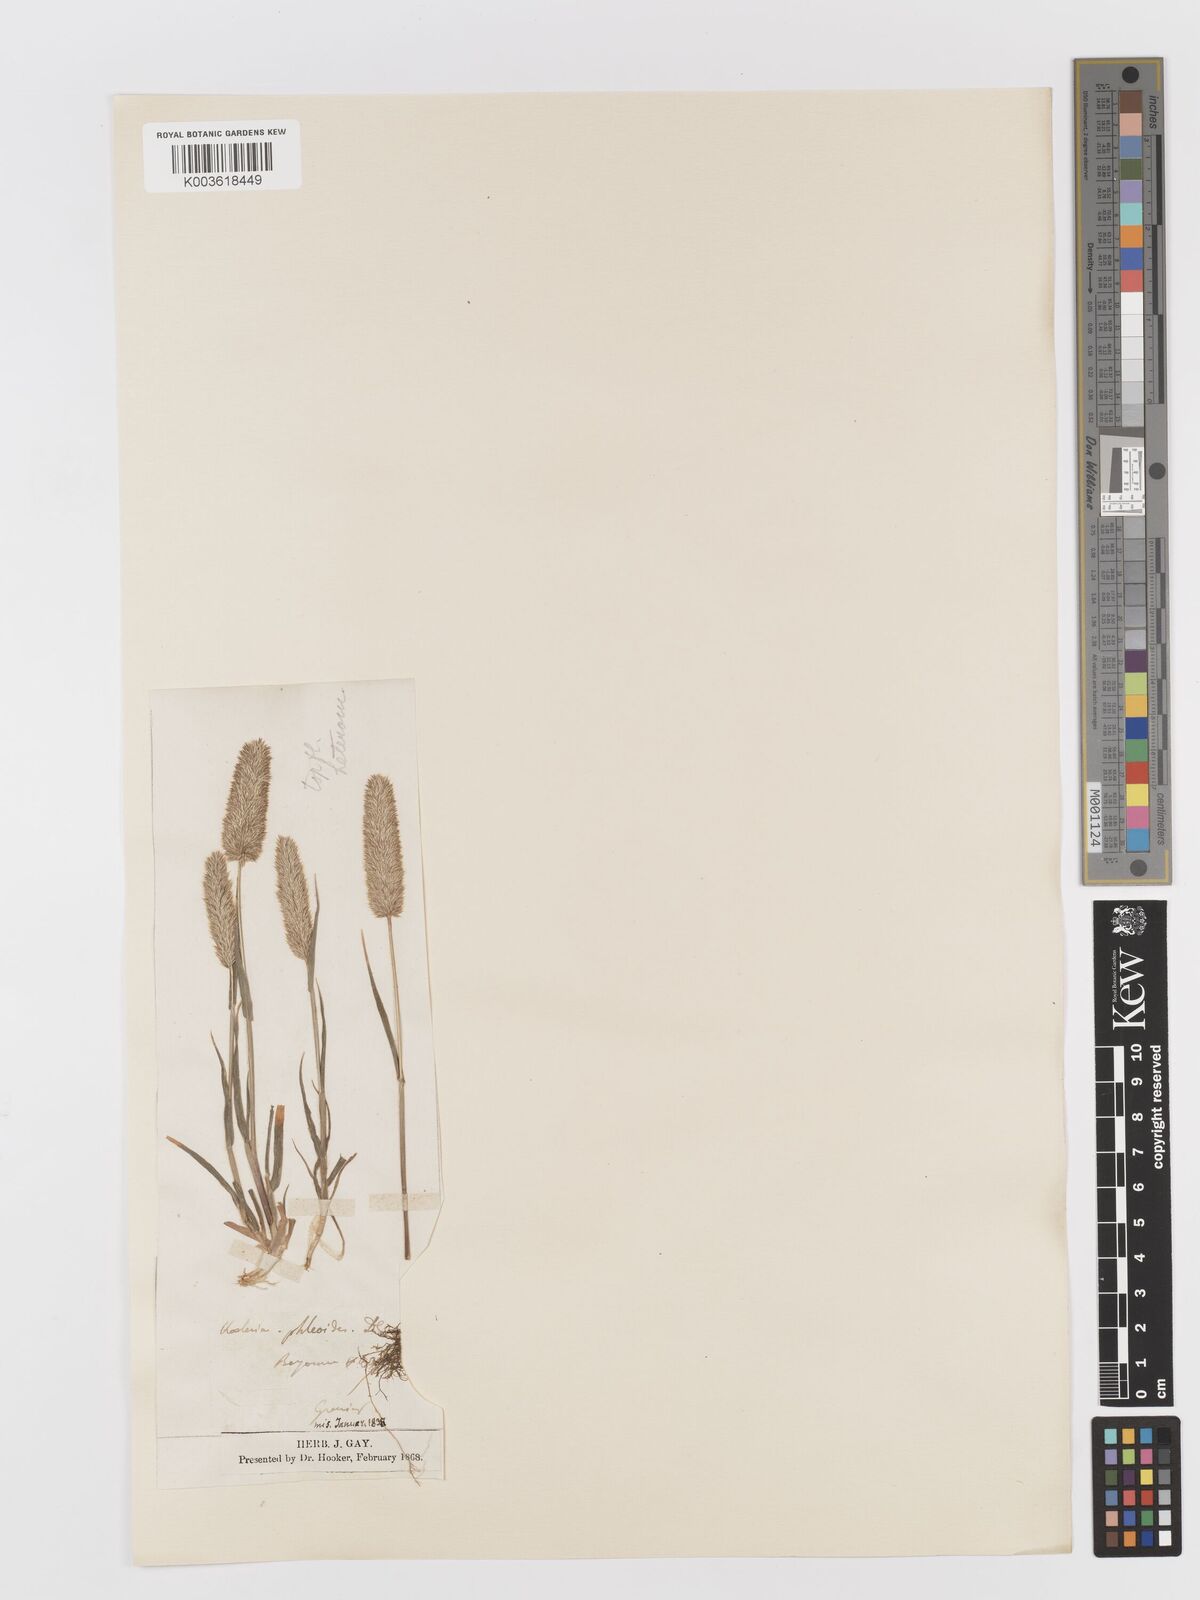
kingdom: Plantae
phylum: Tracheophyta
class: Liliopsida
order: Poales
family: Poaceae
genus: Rostraria
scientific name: Rostraria cristata
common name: Mediterranean hair-grass
